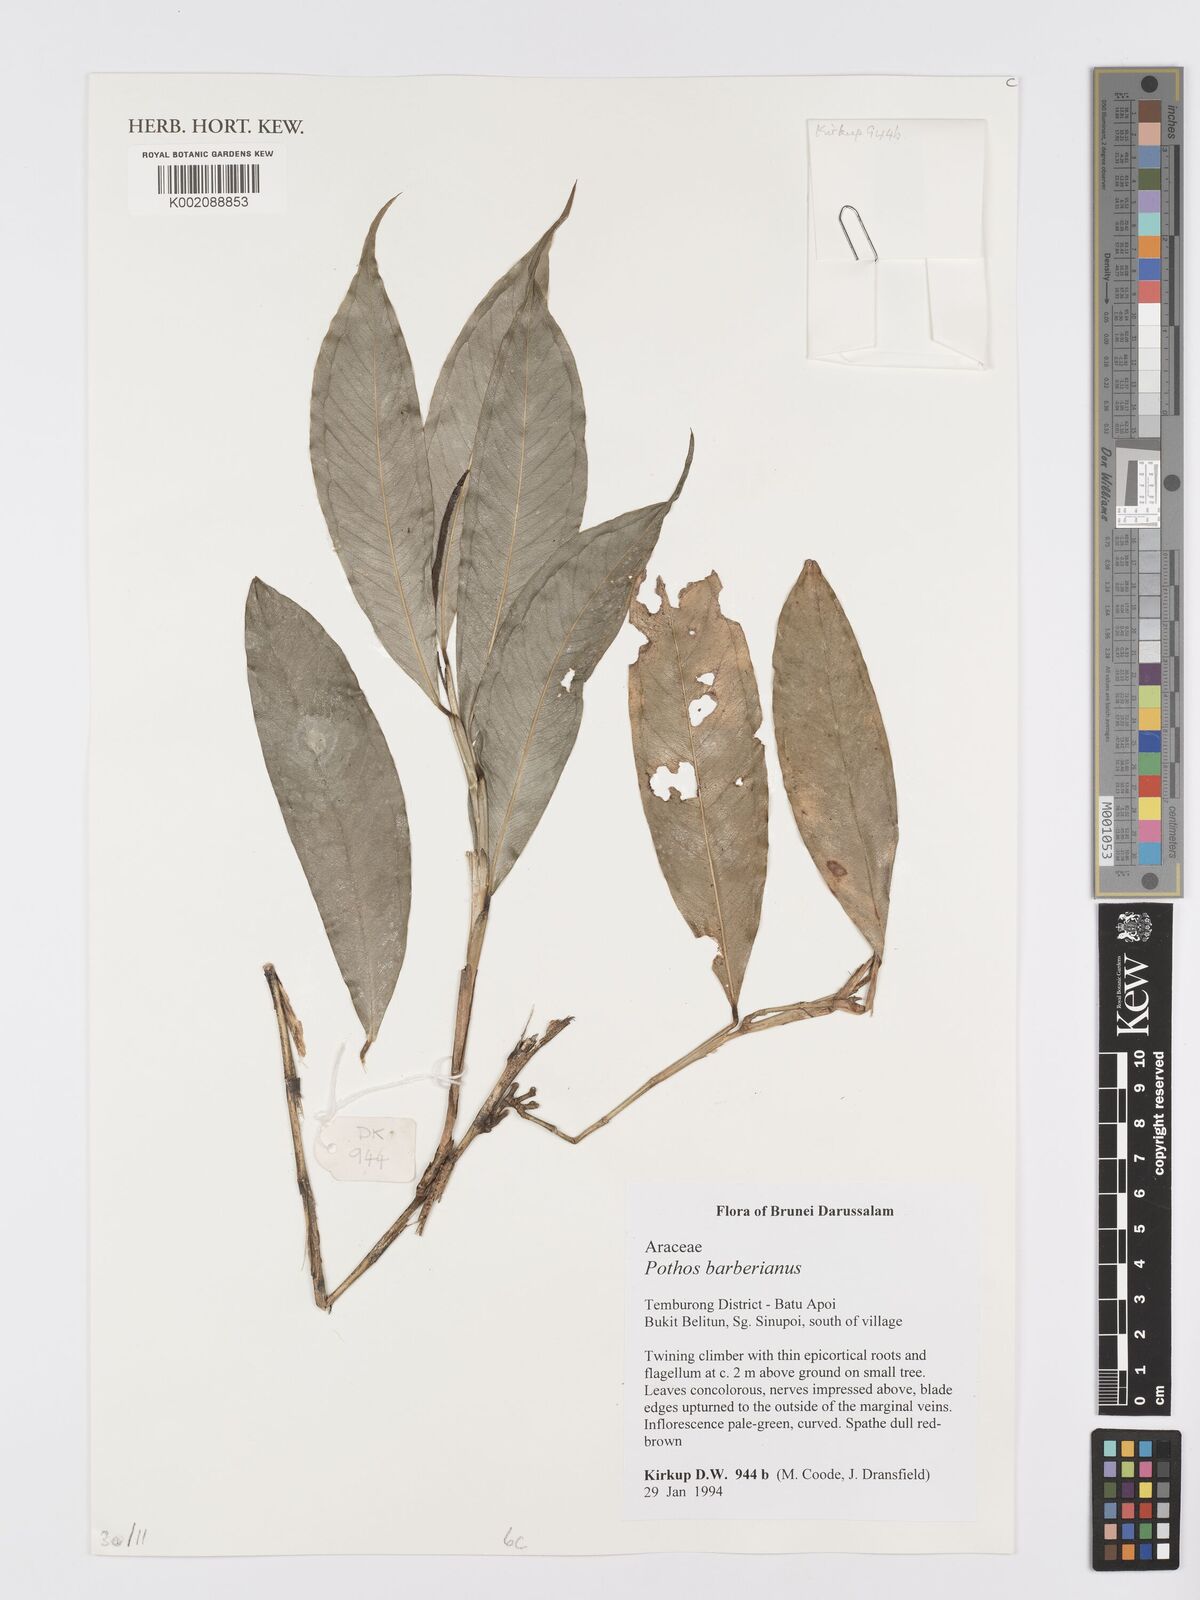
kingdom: Plantae
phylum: Tracheophyta
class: Liliopsida
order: Alismatales
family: Araceae
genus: Pothos
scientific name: Pothos barberianus
